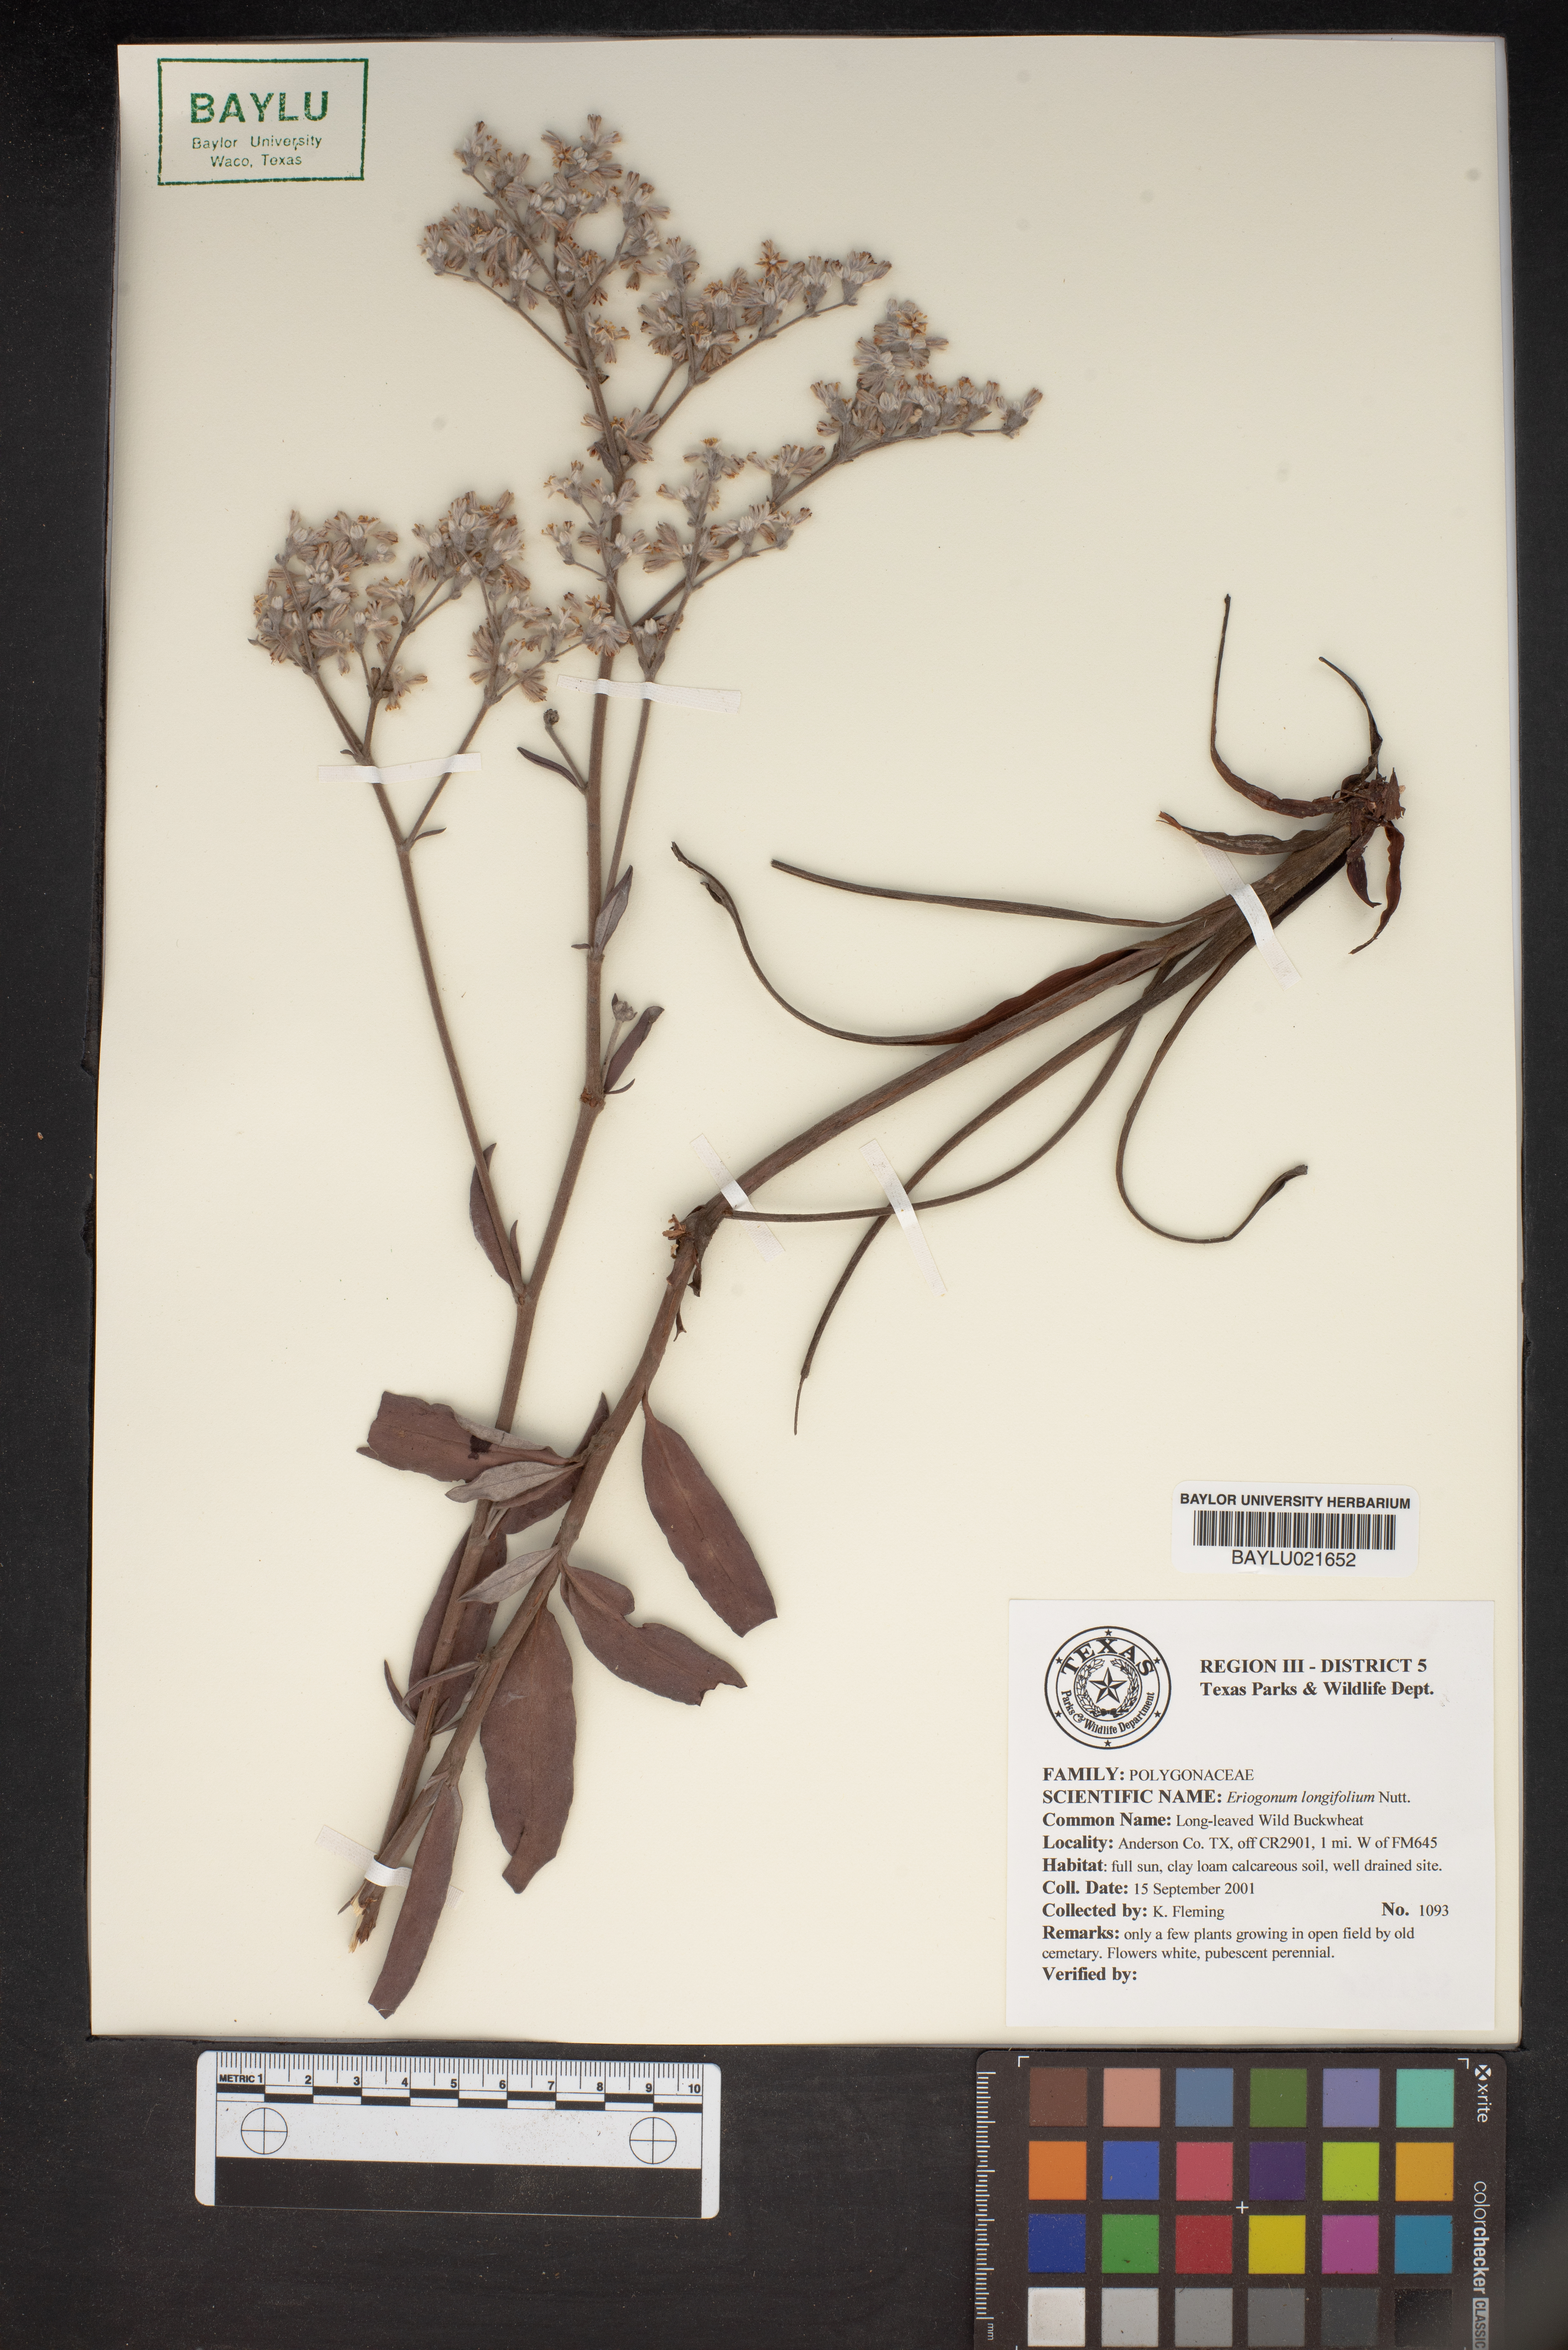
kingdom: Plantae
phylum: Tracheophyta
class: Magnoliopsida
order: Caryophyllales
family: Polygonaceae
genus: Eriogonum
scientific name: Eriogonum longifolium
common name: Longleaf wild buckwheat
